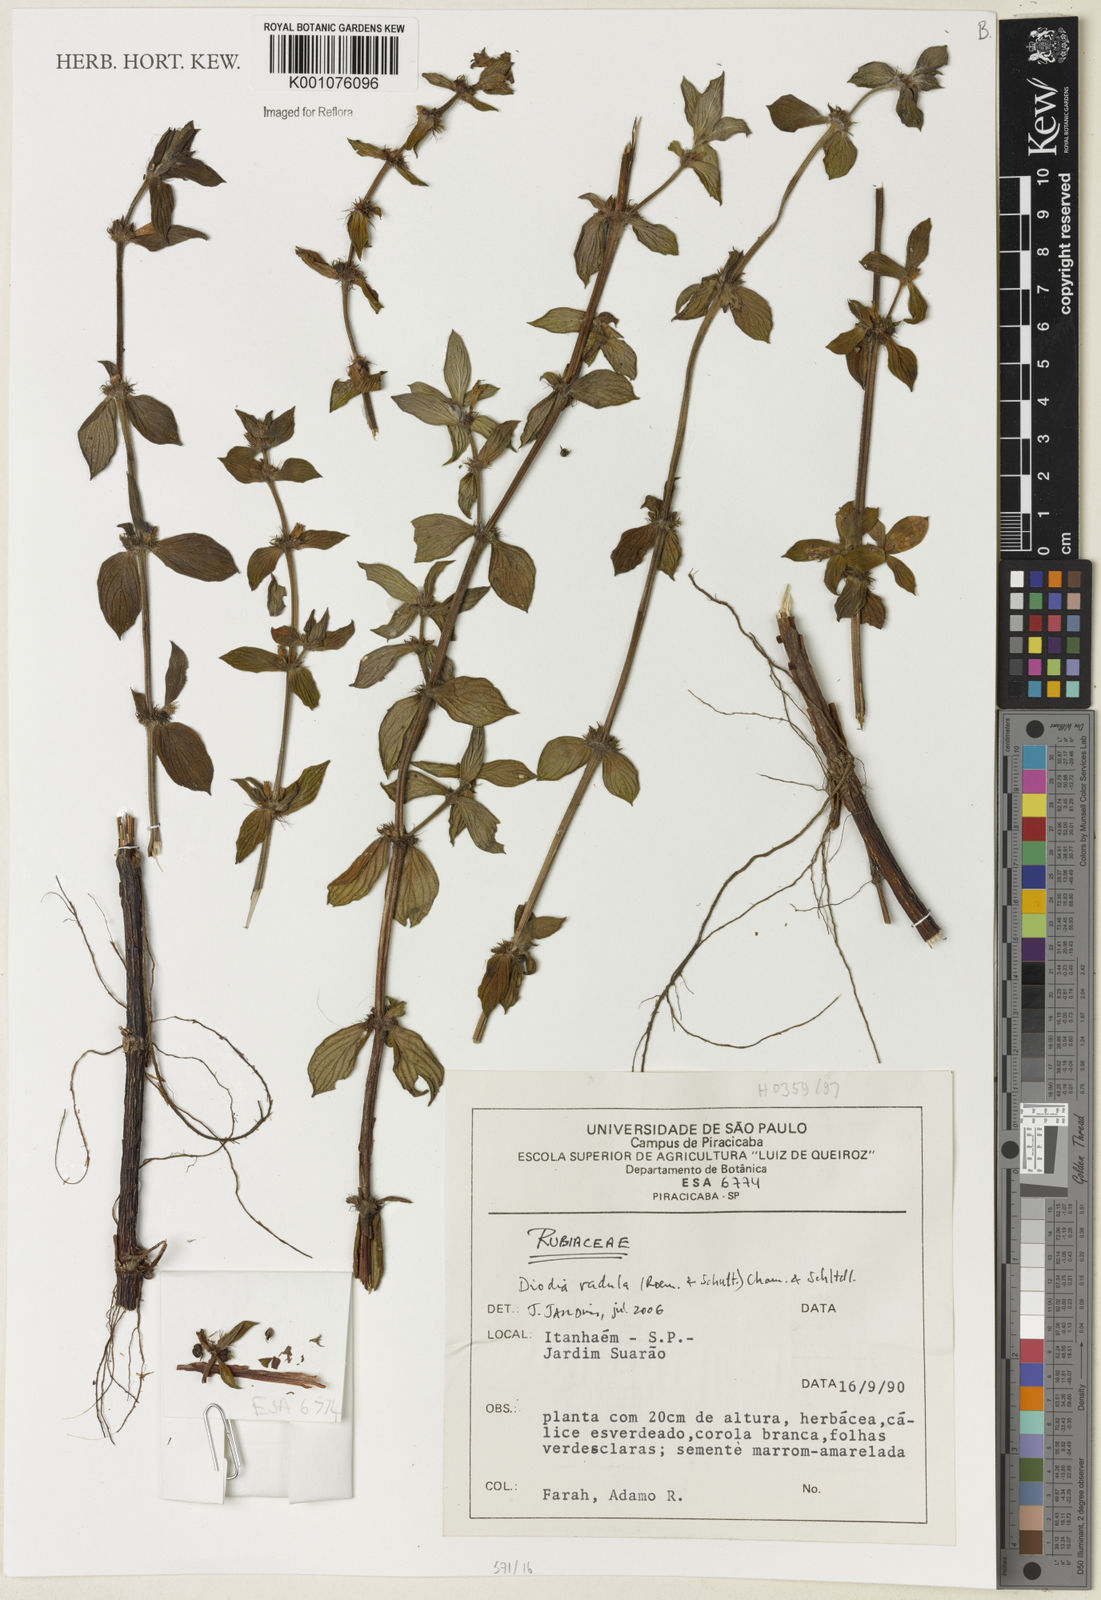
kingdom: Plantae
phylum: Tracheophyta
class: Magnoliopsida
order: Gentianales
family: Rubiaceae
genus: Hexasepalum
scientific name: Hexasepalum radulum
